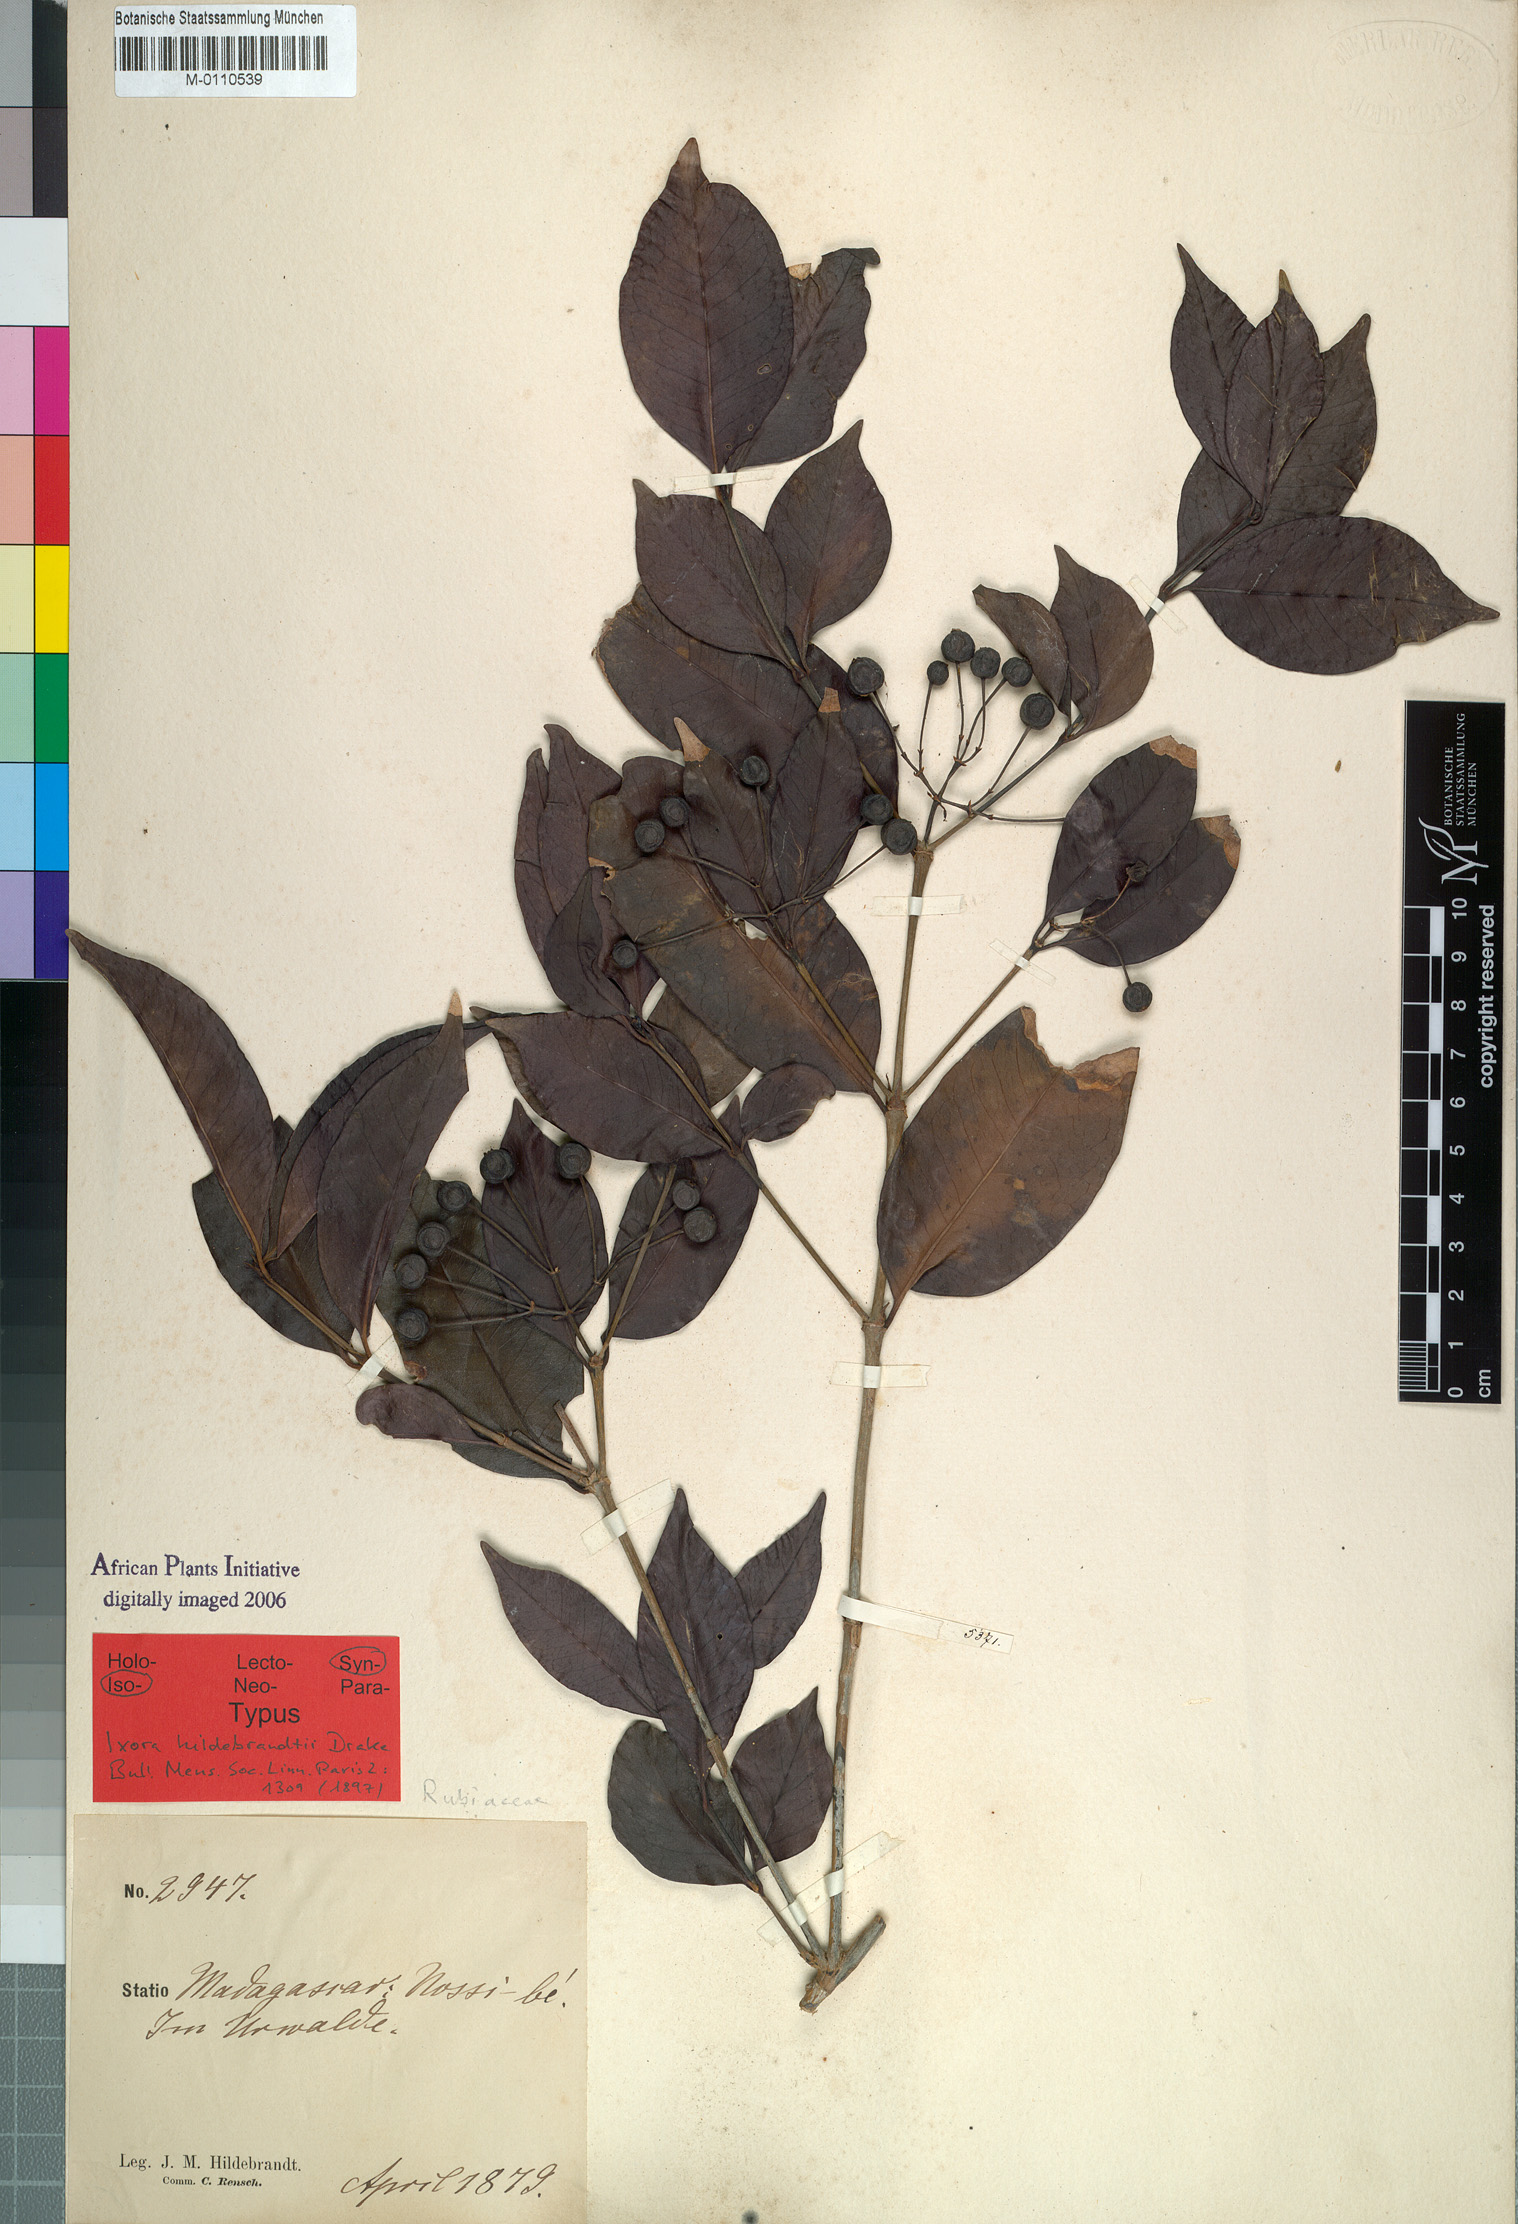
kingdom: Plantae
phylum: Tracheophyta
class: Magnoliopsida
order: Gentianales
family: Rubiaceae
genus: Tarenna
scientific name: Tarenna sechellensis
